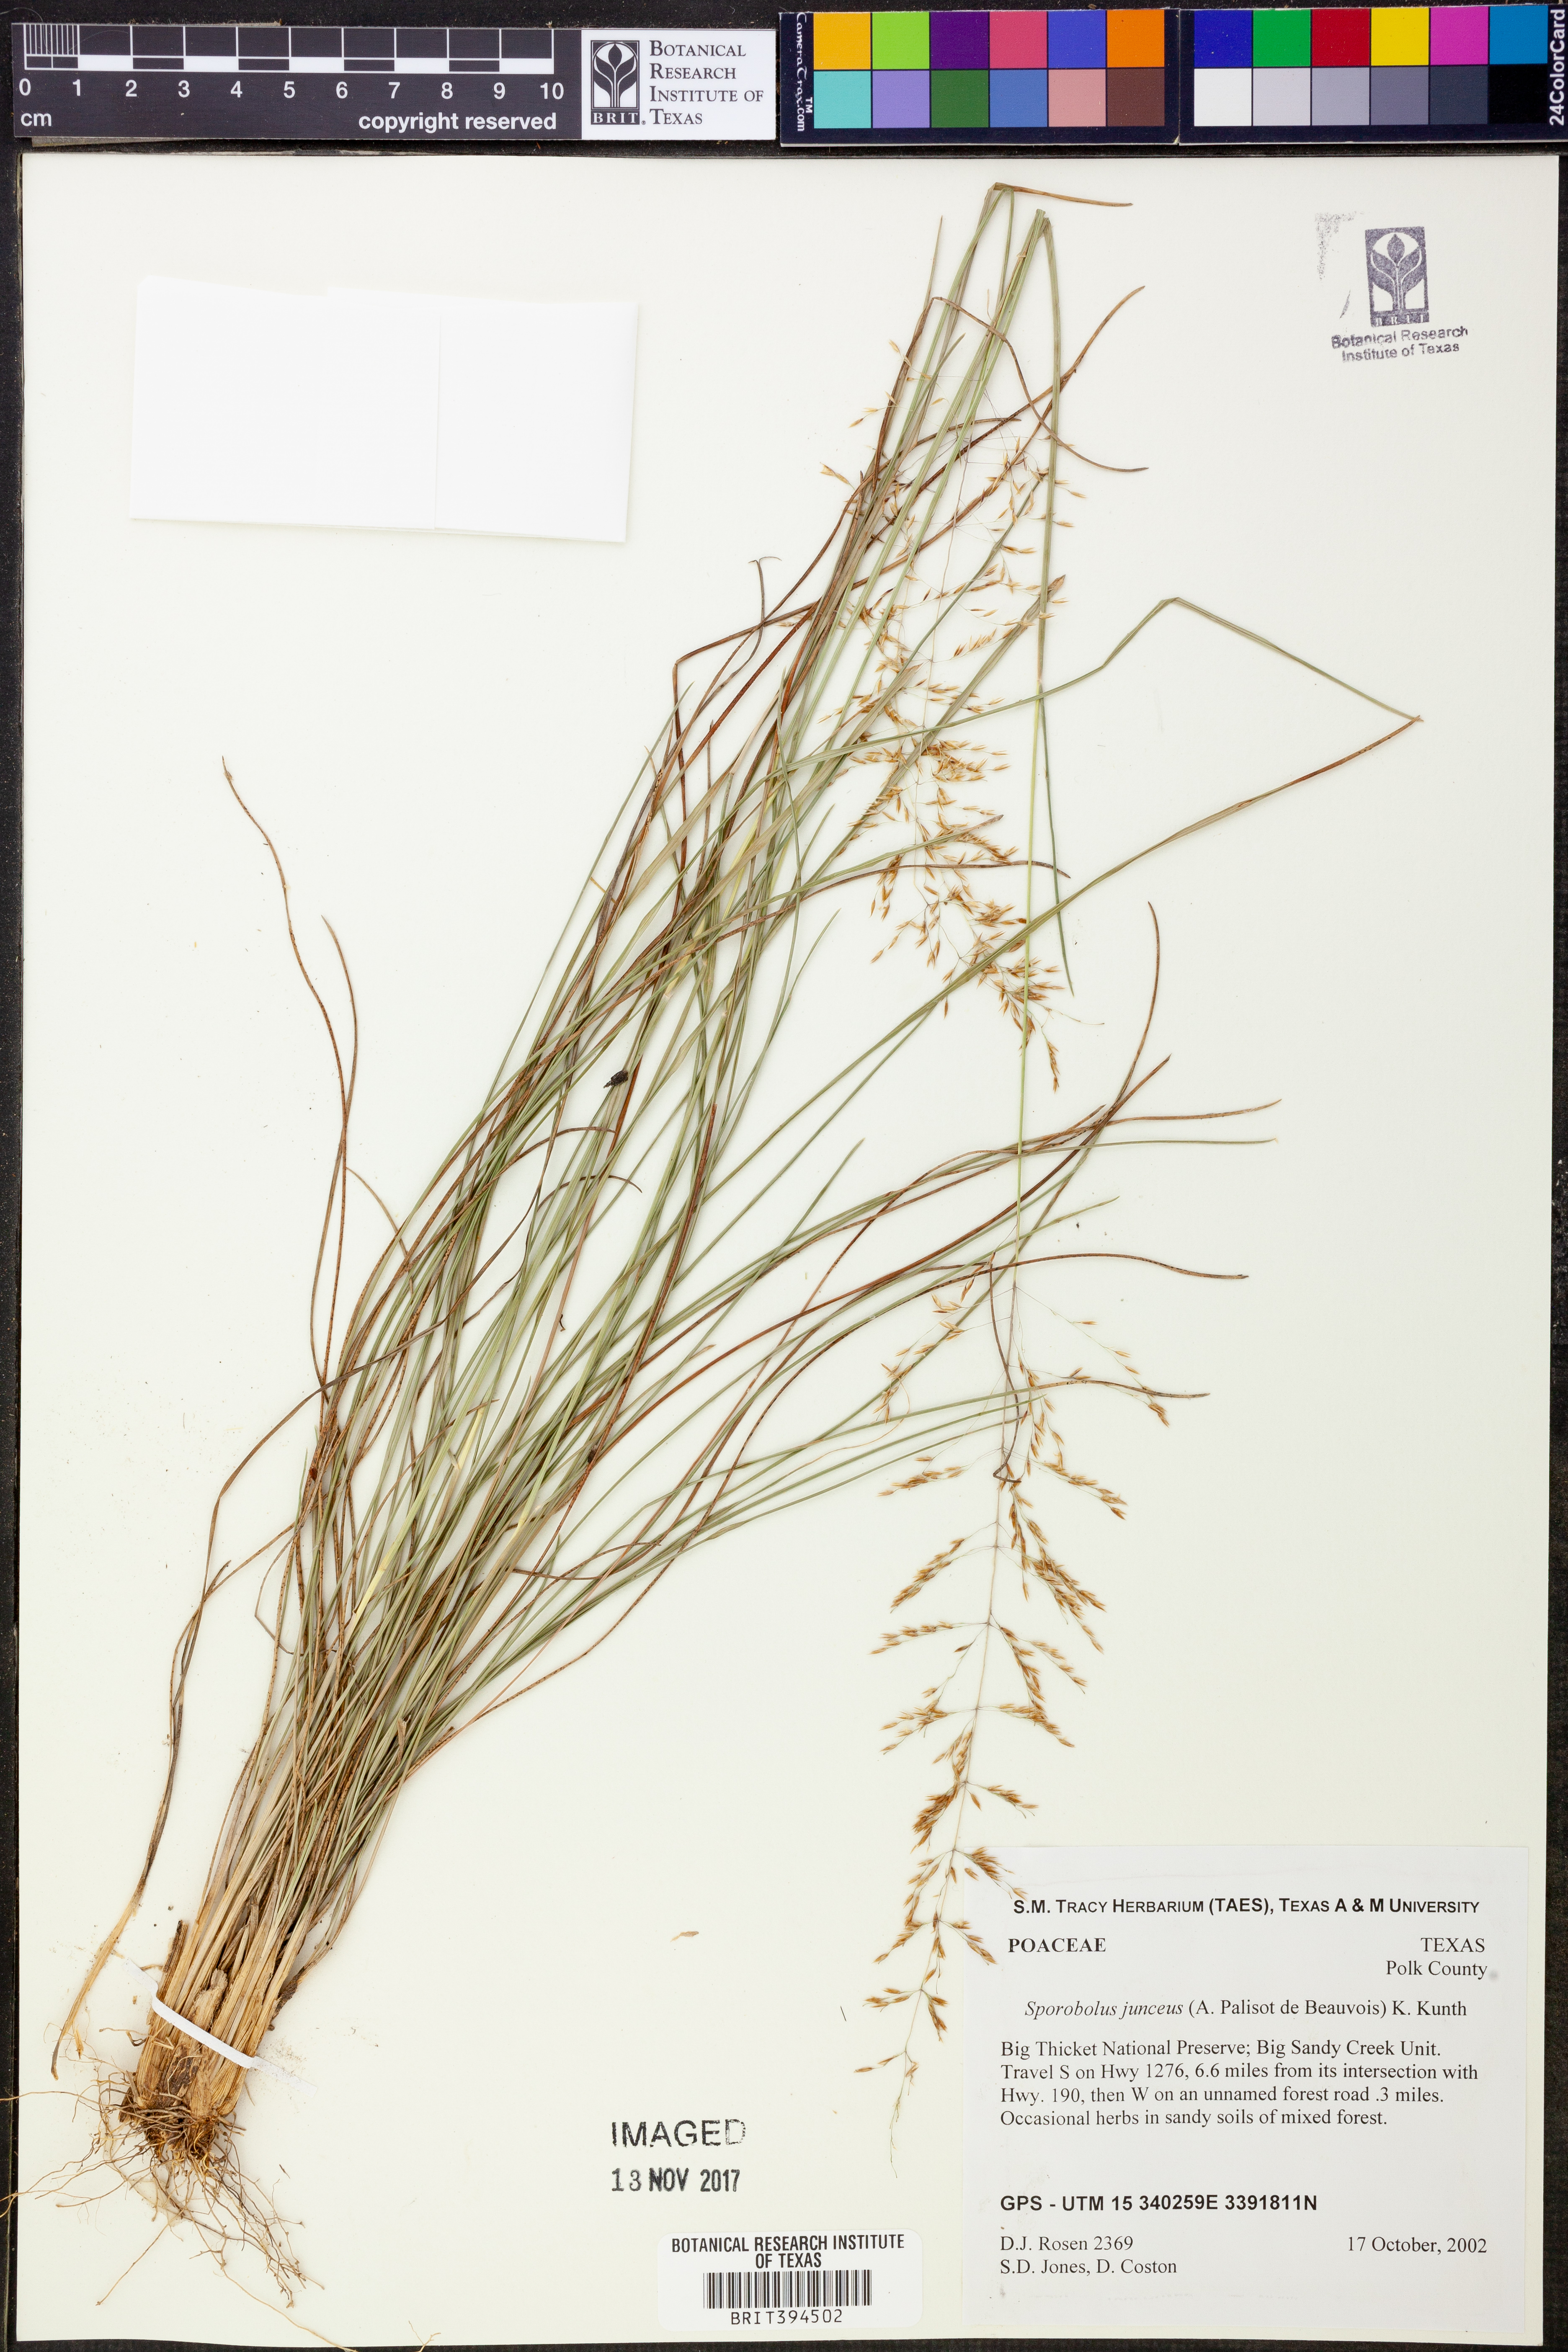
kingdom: Plantae
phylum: Tracheophyta
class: Liliopsida
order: Poales
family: Poaceae
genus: Sporobolus
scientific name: Sporobolus junceus
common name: Lizard grass
